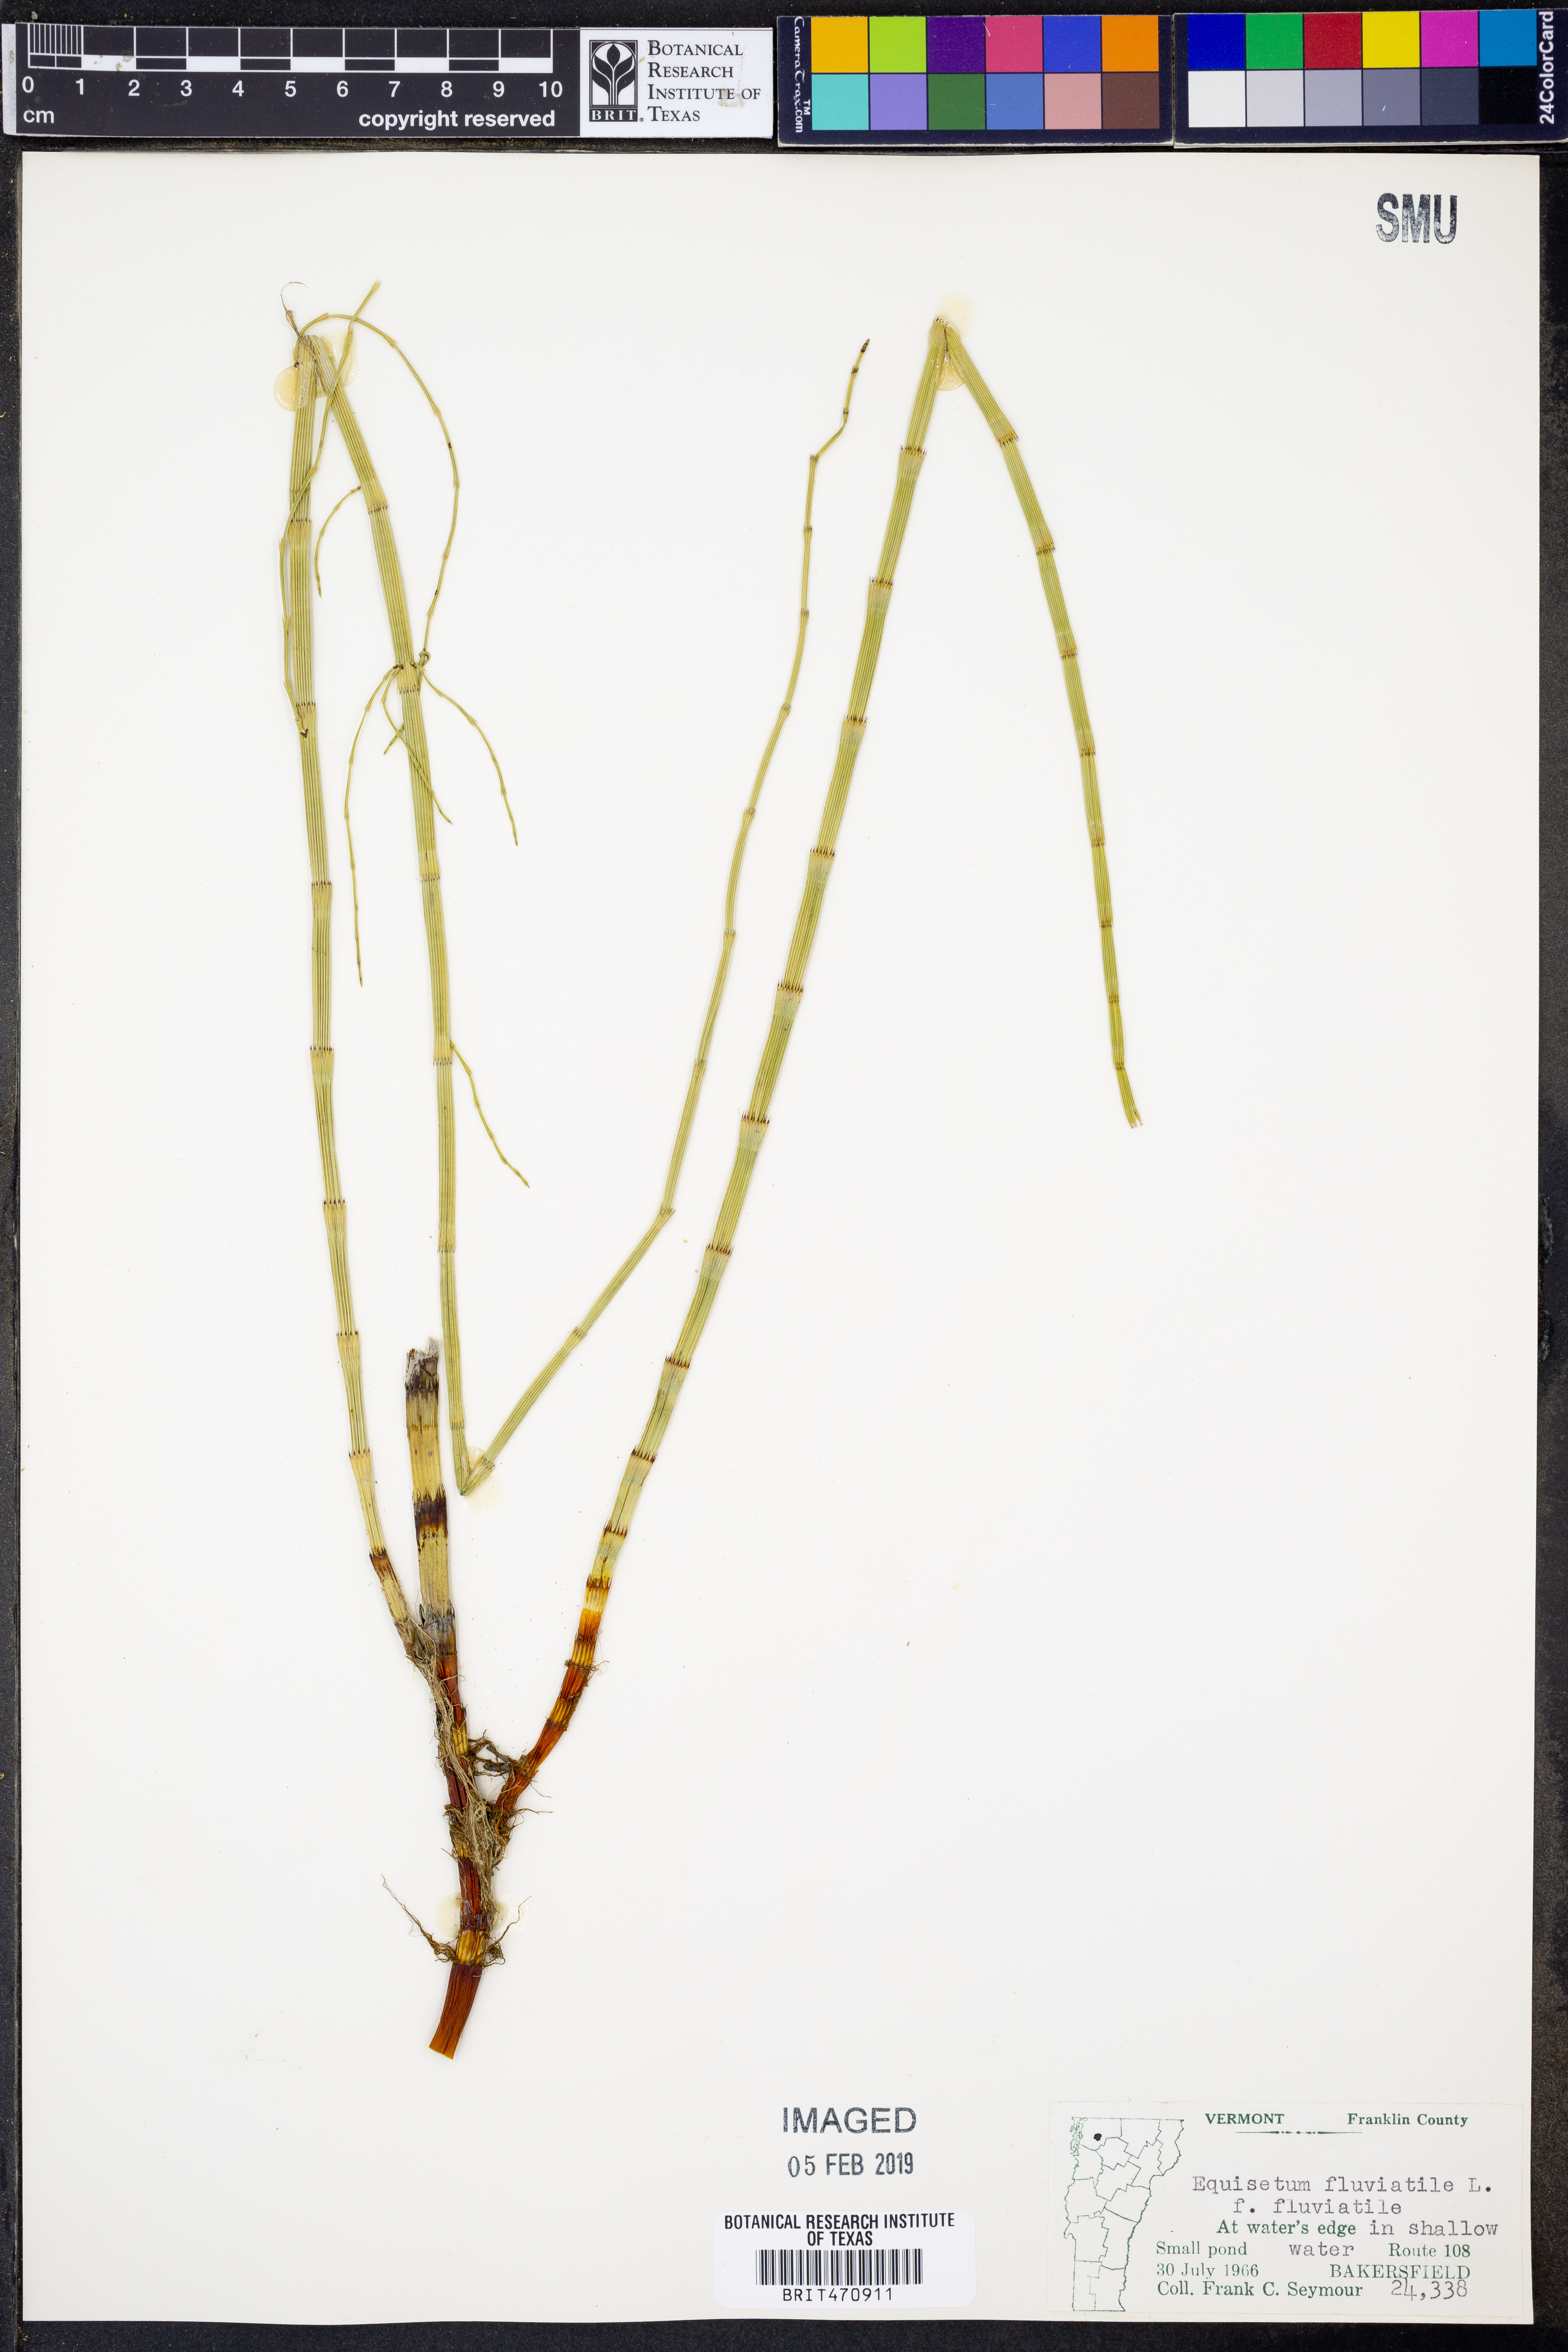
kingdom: Plantae
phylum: Tracheophyta
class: Polypodiopsida
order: Equisetales
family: Equisetaceae
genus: Equisetum
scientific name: Equisetum fluviatile
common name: Water horsetail
